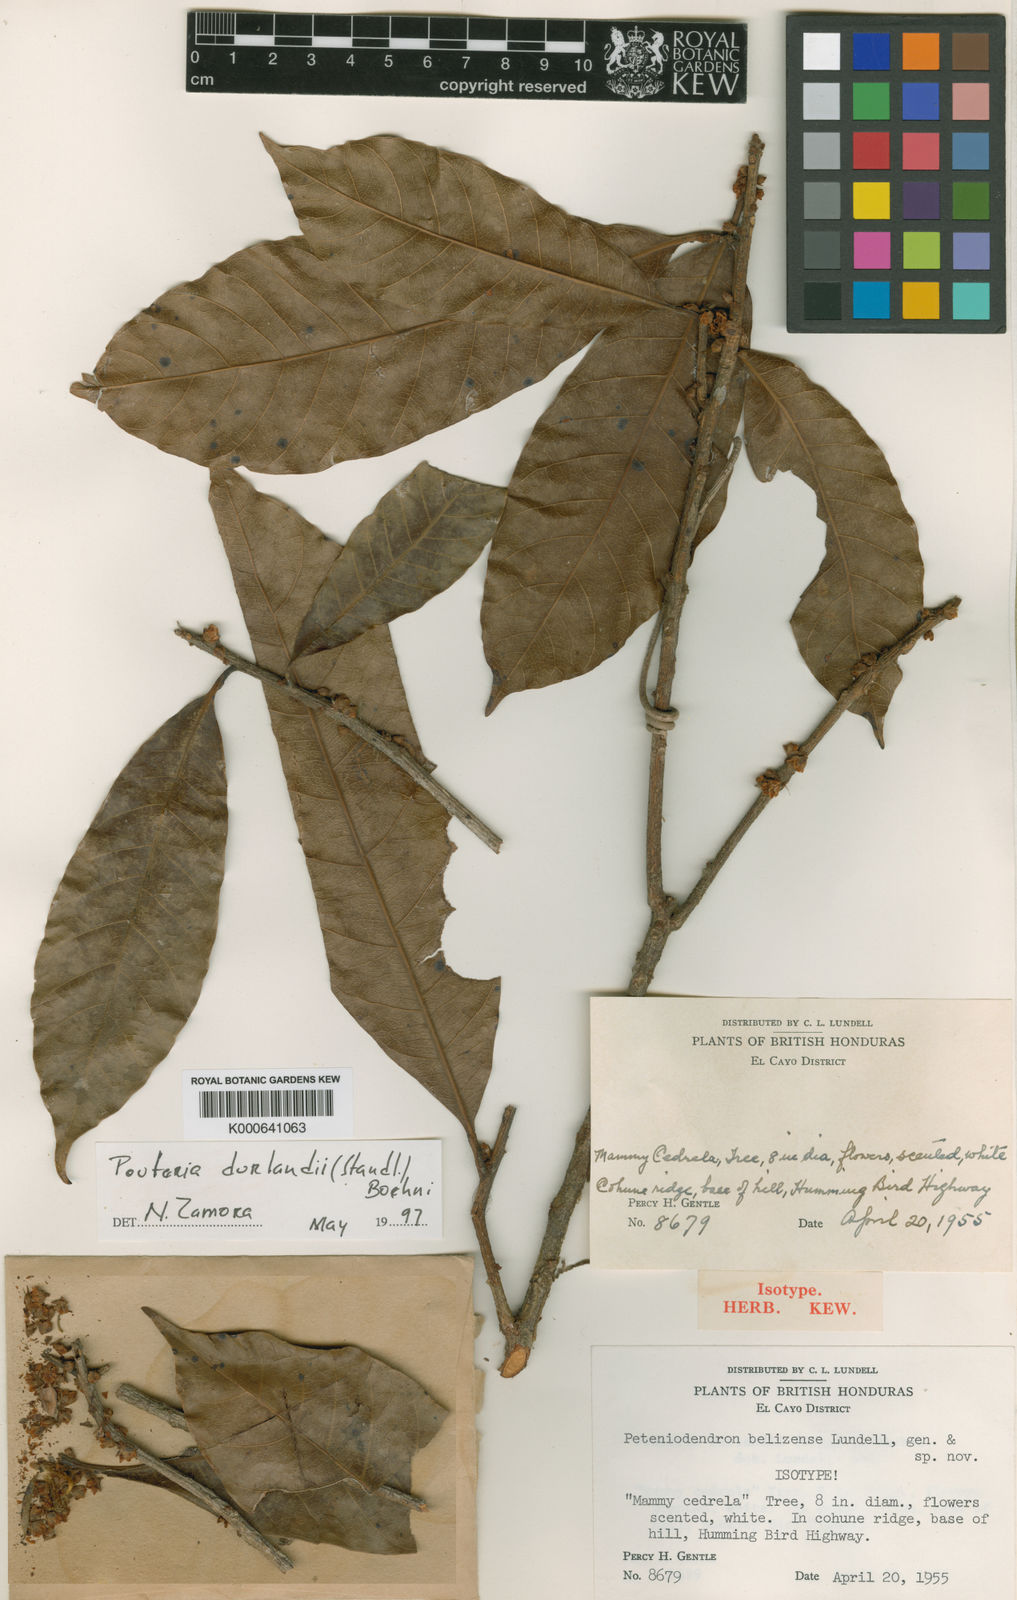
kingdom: Plantae
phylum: Tracheophyta
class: Magnoliopsida
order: Ericales
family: Sapotaceae
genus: Pouteria
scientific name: Pouteria durlandii
